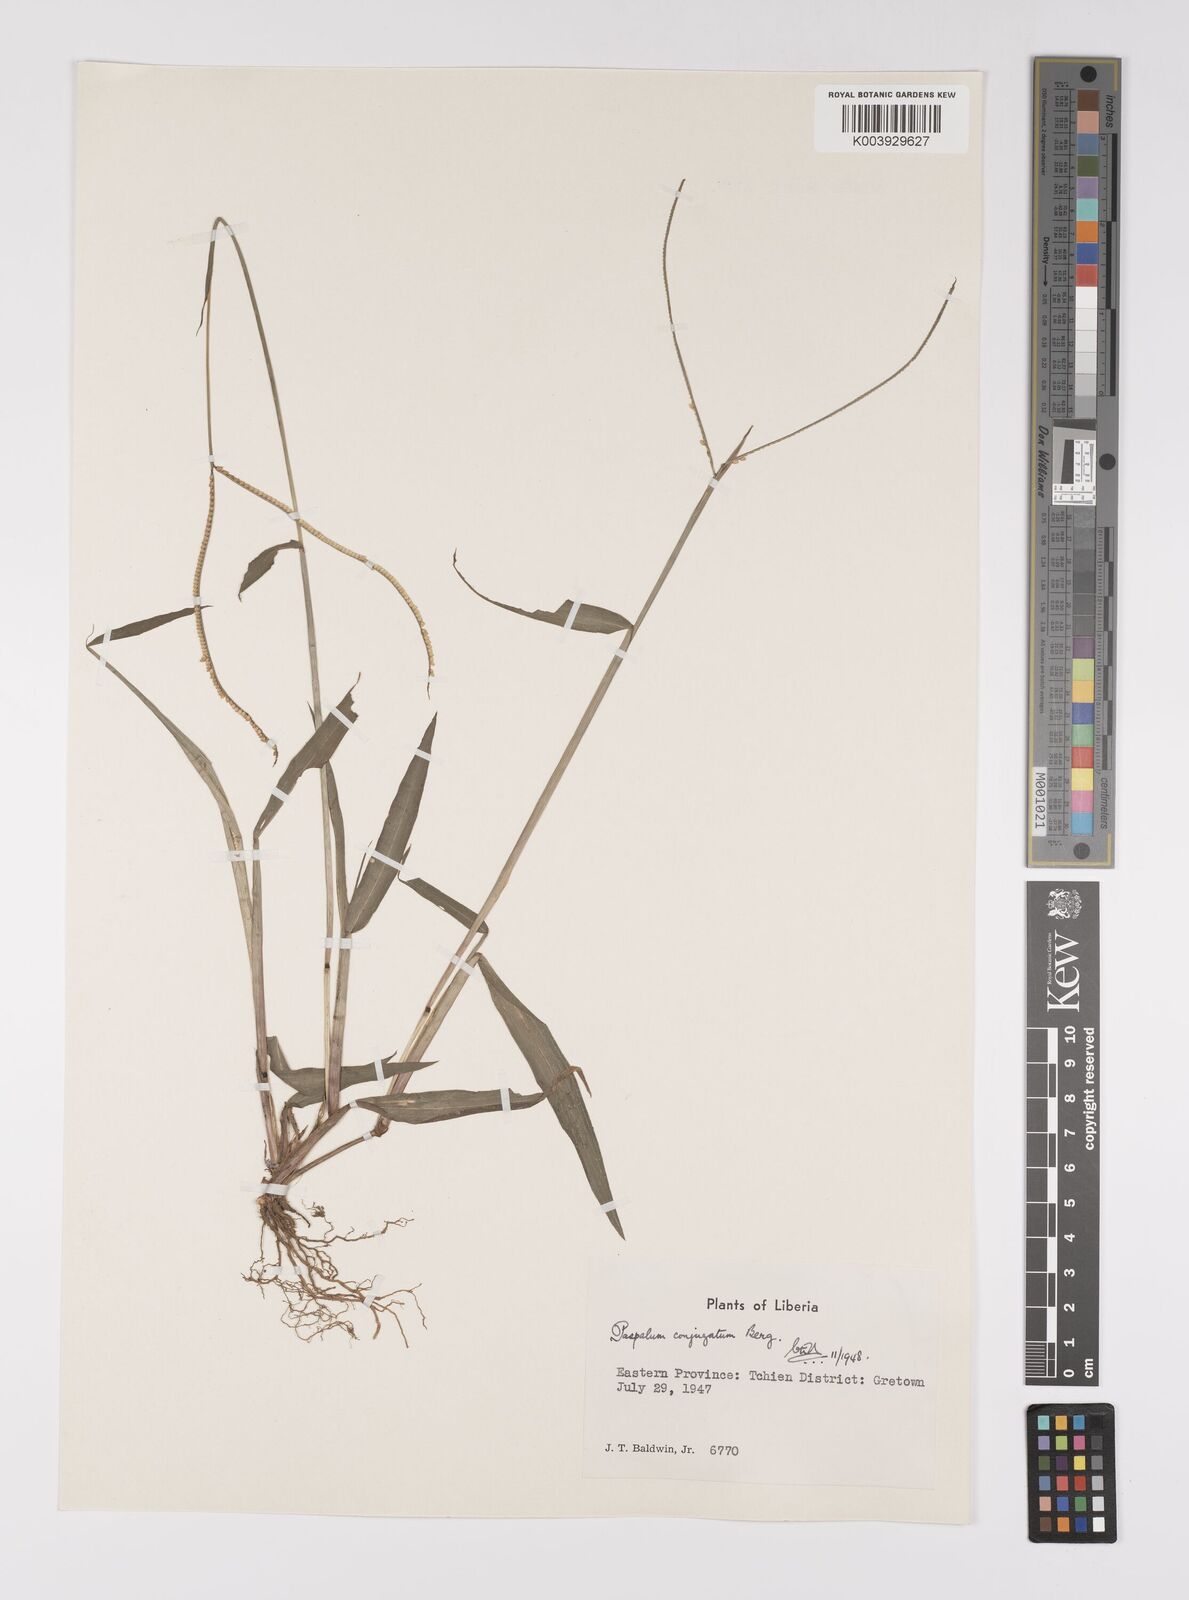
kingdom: Plantae
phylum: Tracheophyta
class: Liliopsida
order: Poales
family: Poaceae
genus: Paspalum
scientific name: Paspalum conjugatum
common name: Hilograss
